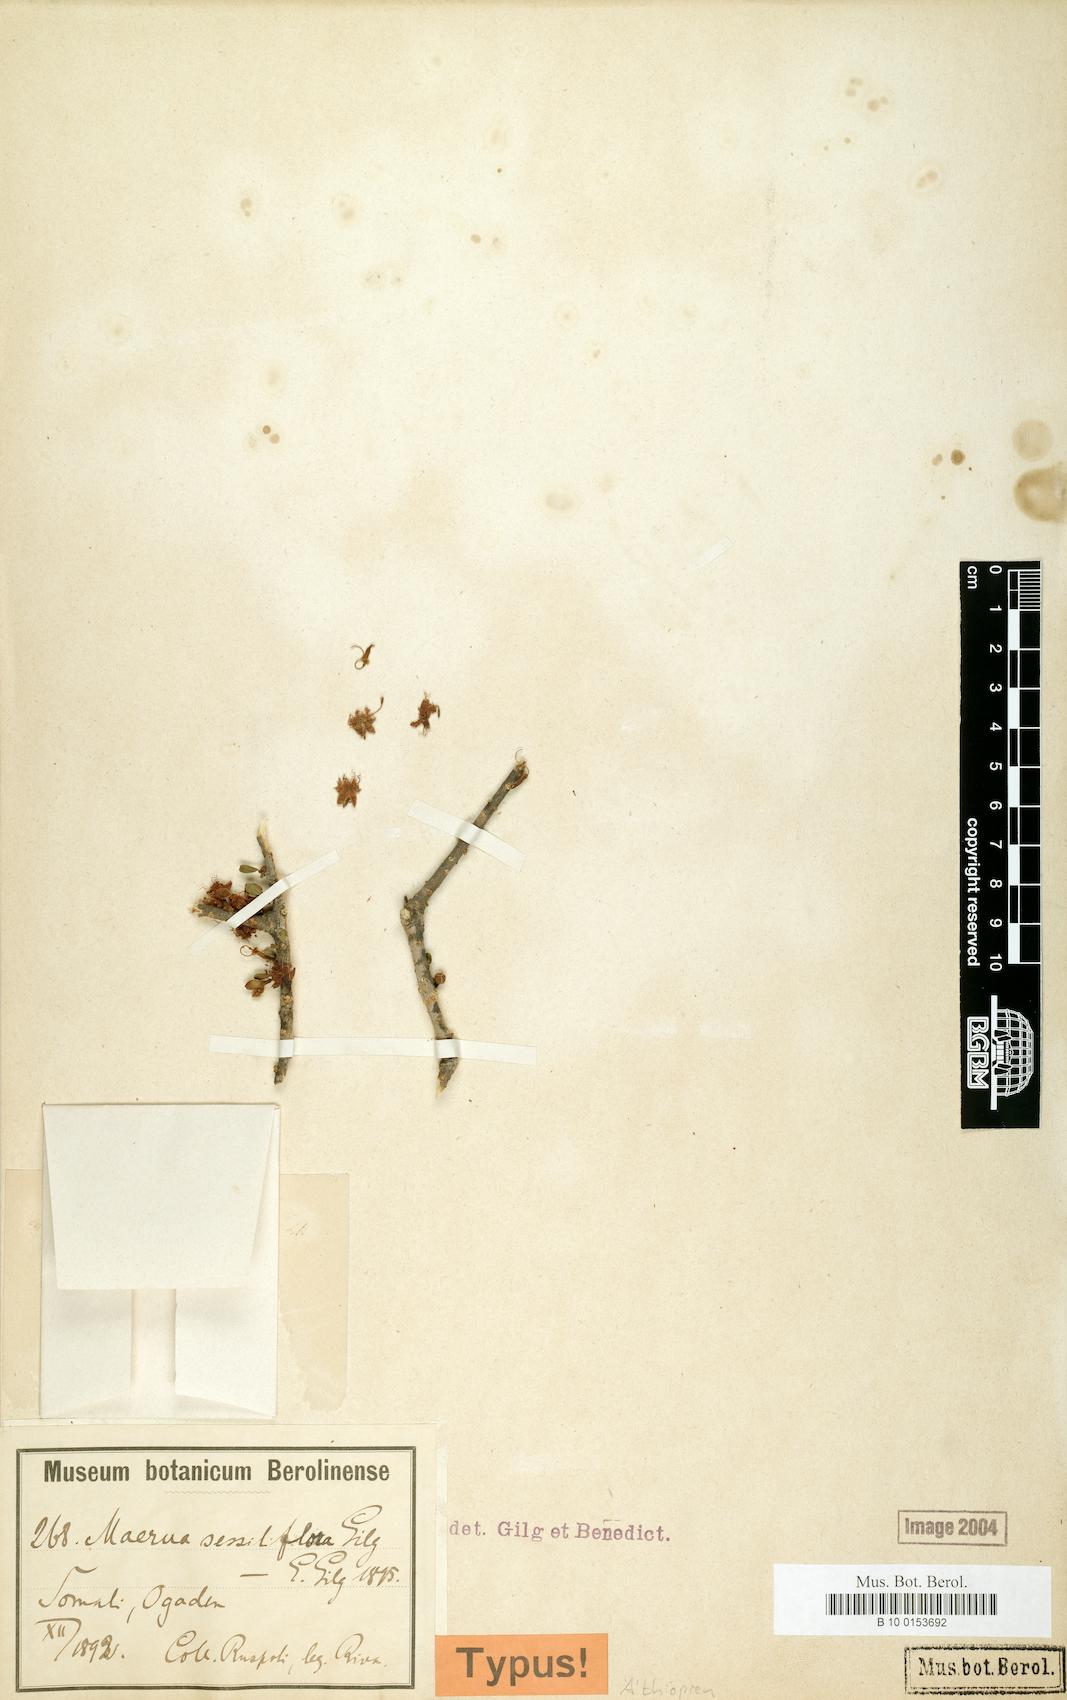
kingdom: Plantae
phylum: Tracheophyta
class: Magnoliopsida
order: Brassicales
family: Capparaceae
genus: Maerua
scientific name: Maerua sessiliflora
